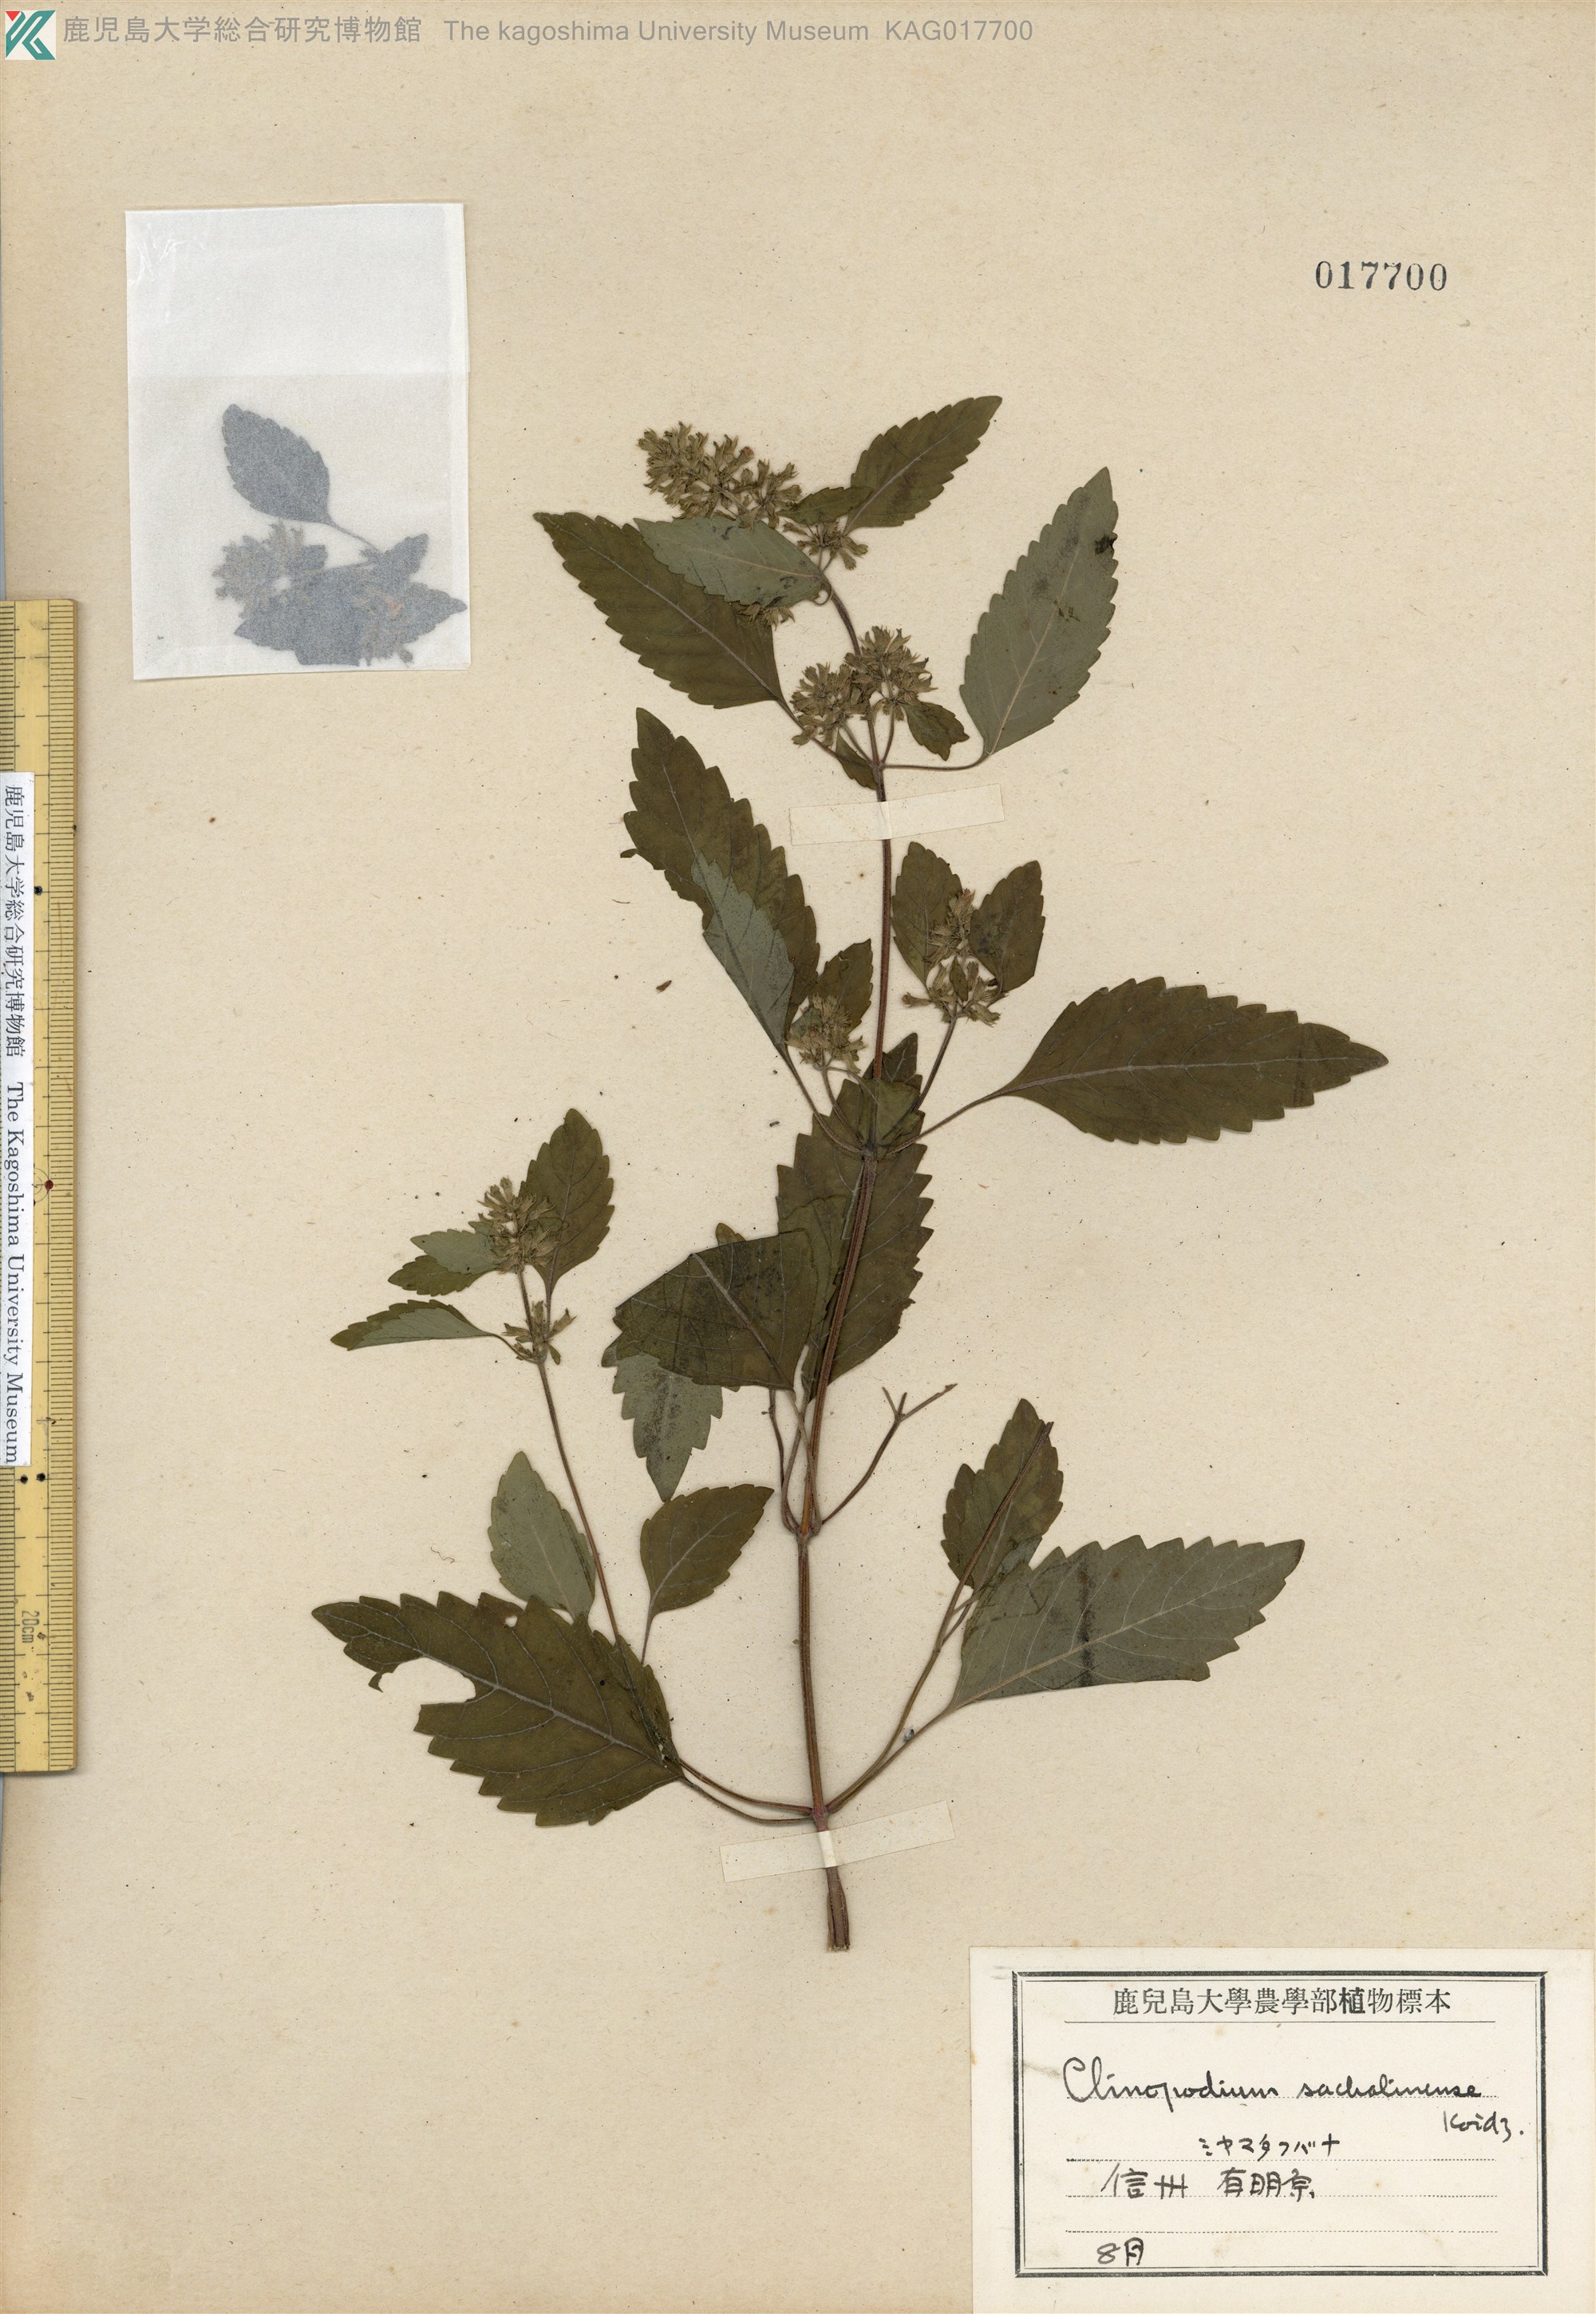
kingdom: Plantae
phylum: Tracheophyta
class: Magnoliopsida
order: Lamiales
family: Lamiaceae
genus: Clinopodium
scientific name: Clinopodium micranthum
